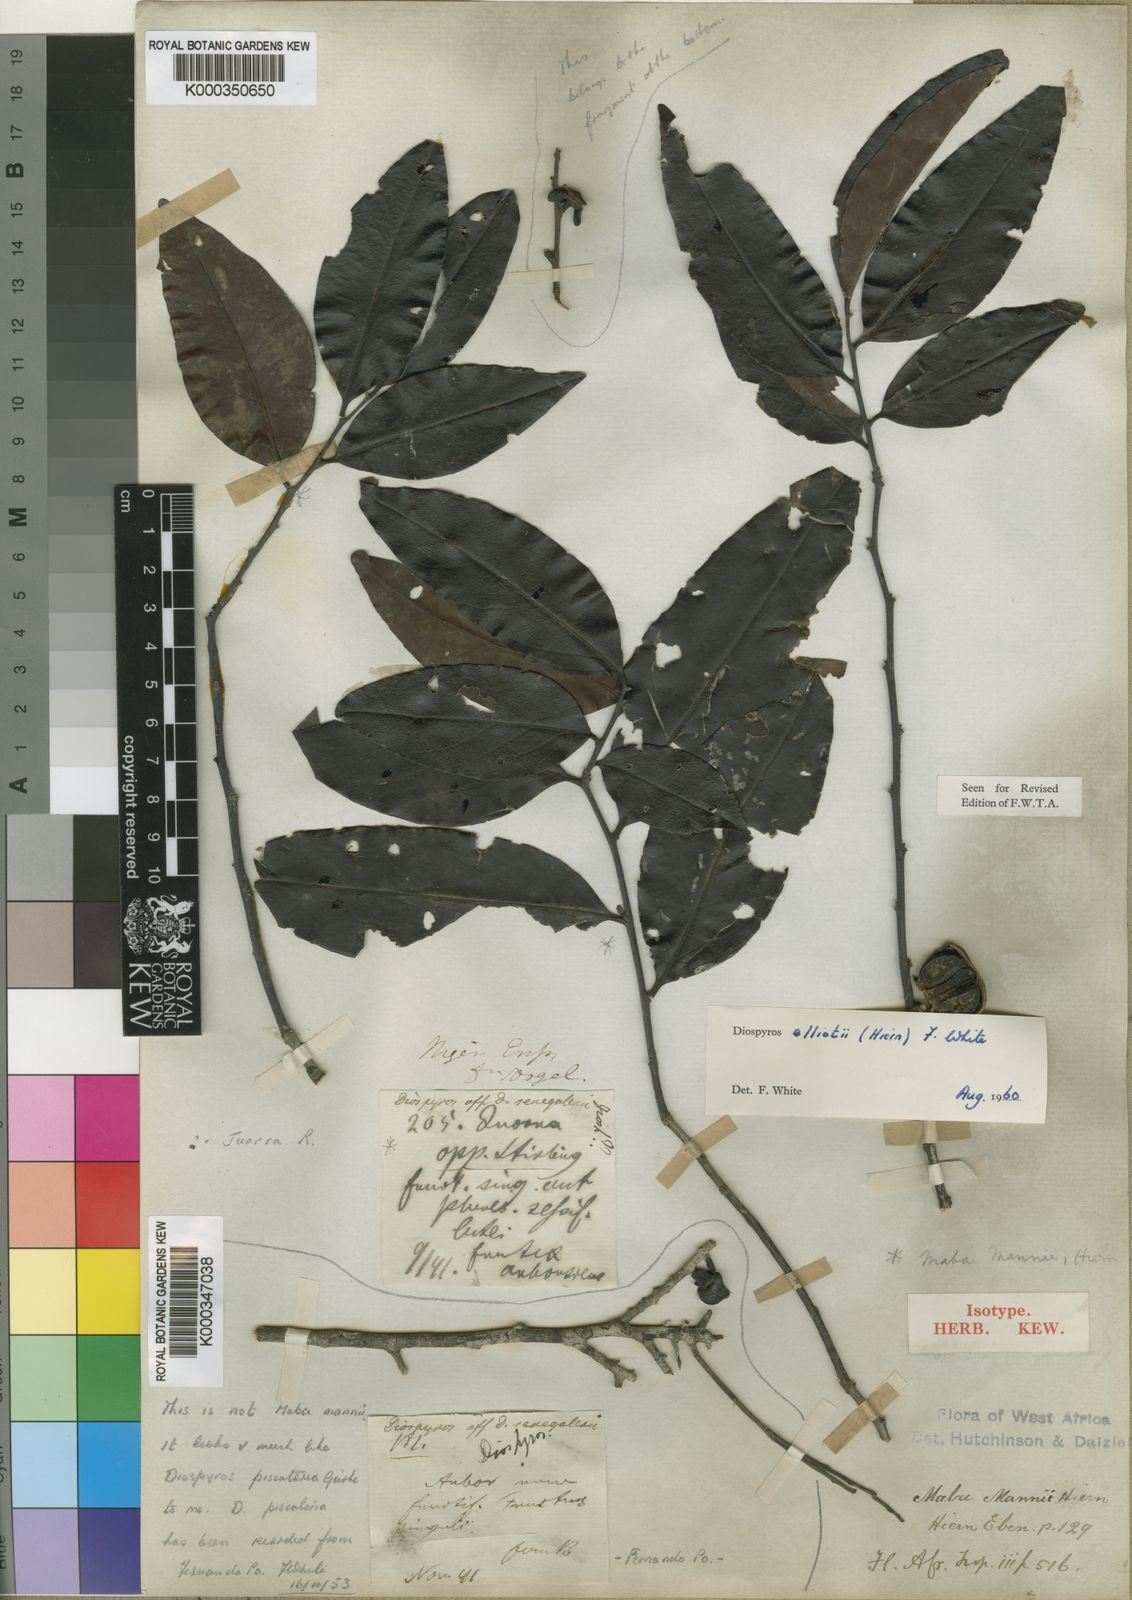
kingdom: Plantae
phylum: Tracheophyta
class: Magnoliopsida
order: Ericales
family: Ebenaceae
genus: Diospyros
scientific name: Diospyros elliotii
